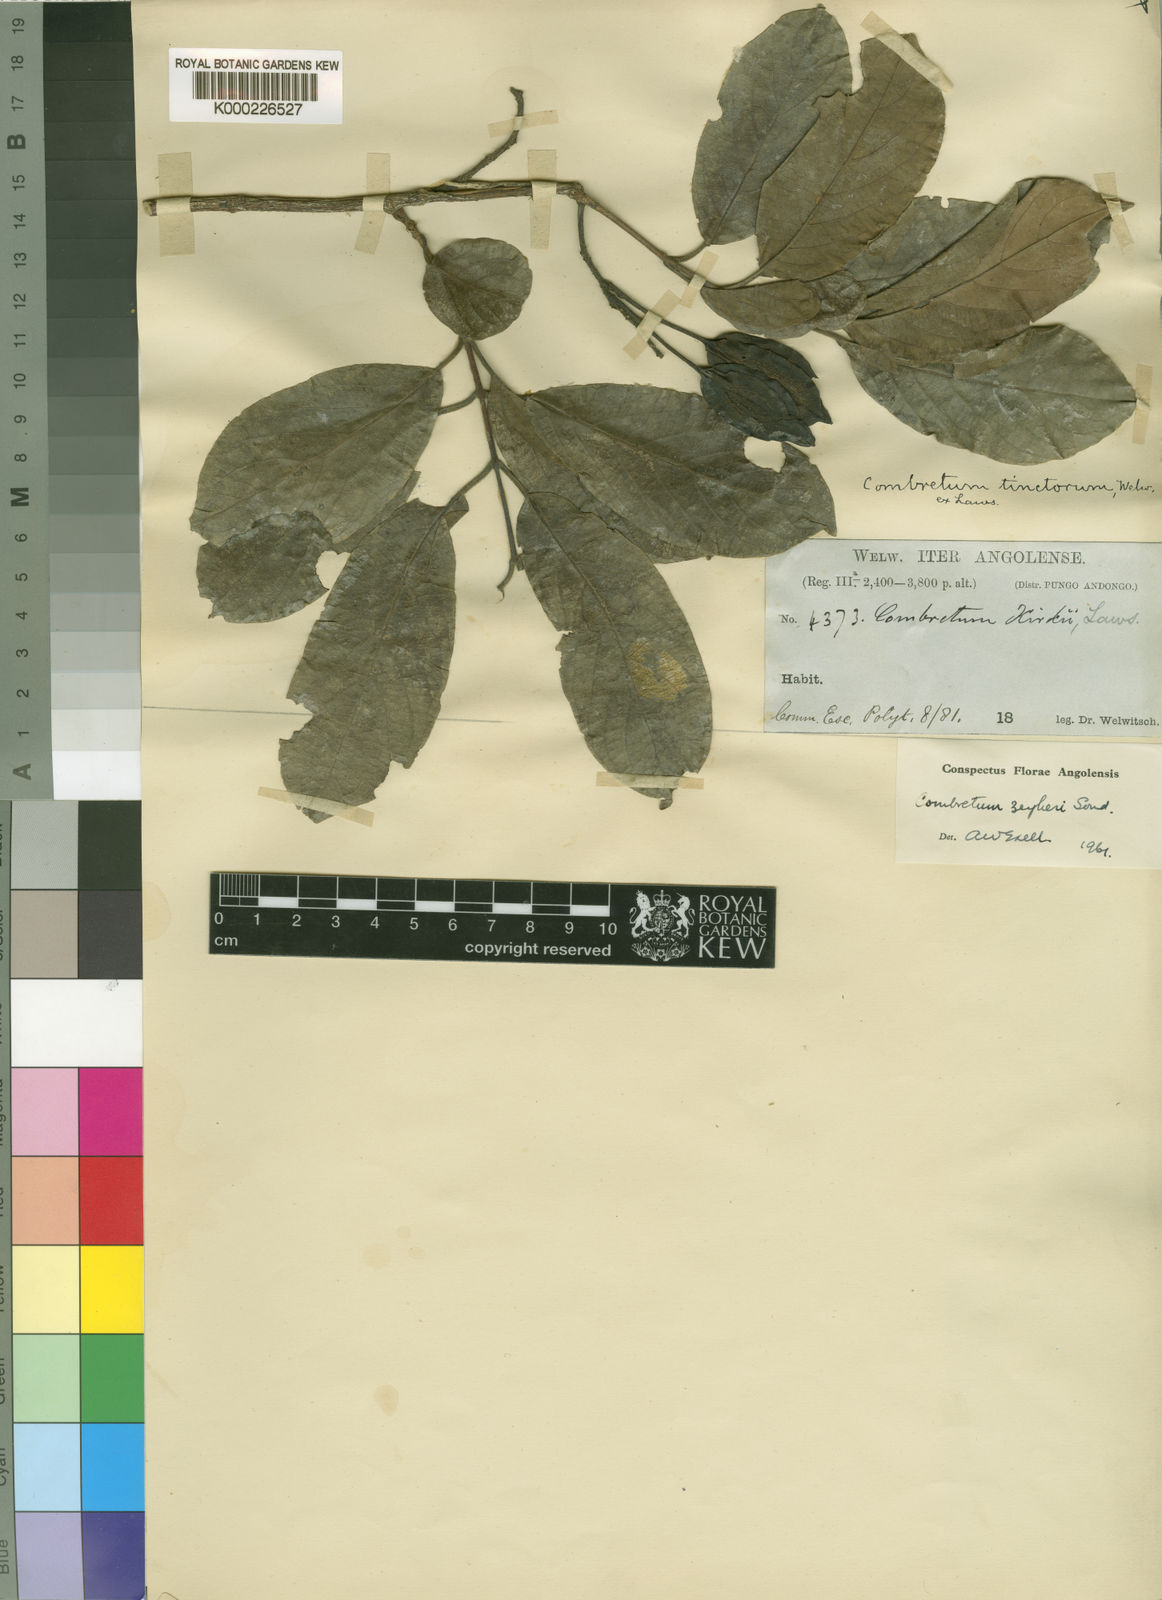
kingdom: Plantae
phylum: Tracheophyta
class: Magnoliopsida
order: Myrtales
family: Combretaceae
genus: Combretum
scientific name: Combretum zeyheri
